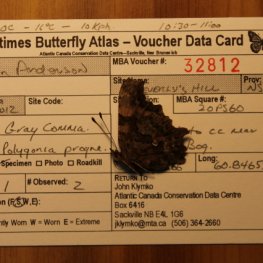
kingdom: Animalia
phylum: Arthropoda
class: Insecta
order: Lepidoptera
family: Nymphalidae
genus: Polygonia
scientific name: Polygonia progne
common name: Gray Comma
